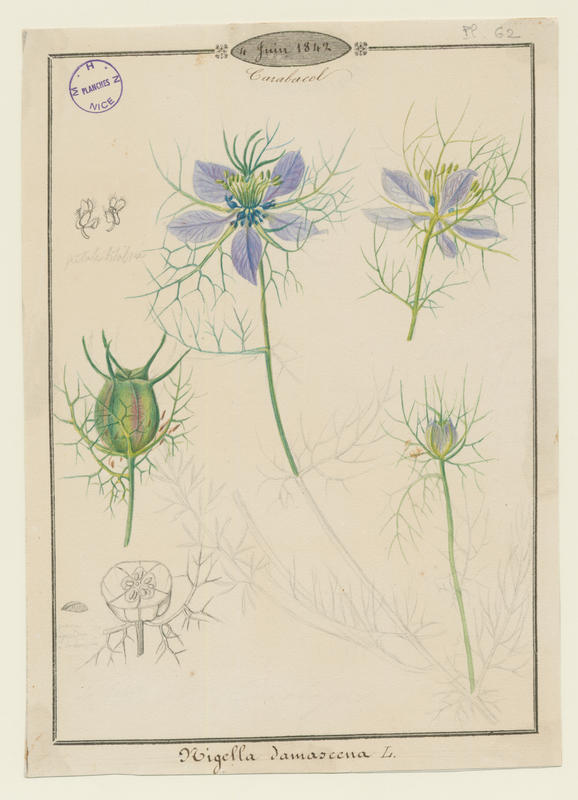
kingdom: Plantae
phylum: Tracheophyta
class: Magnoliopsida
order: Ranunculales
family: Ranunculaceae
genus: Nigella
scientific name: Nigella damascena
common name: Love-in-a-mist
